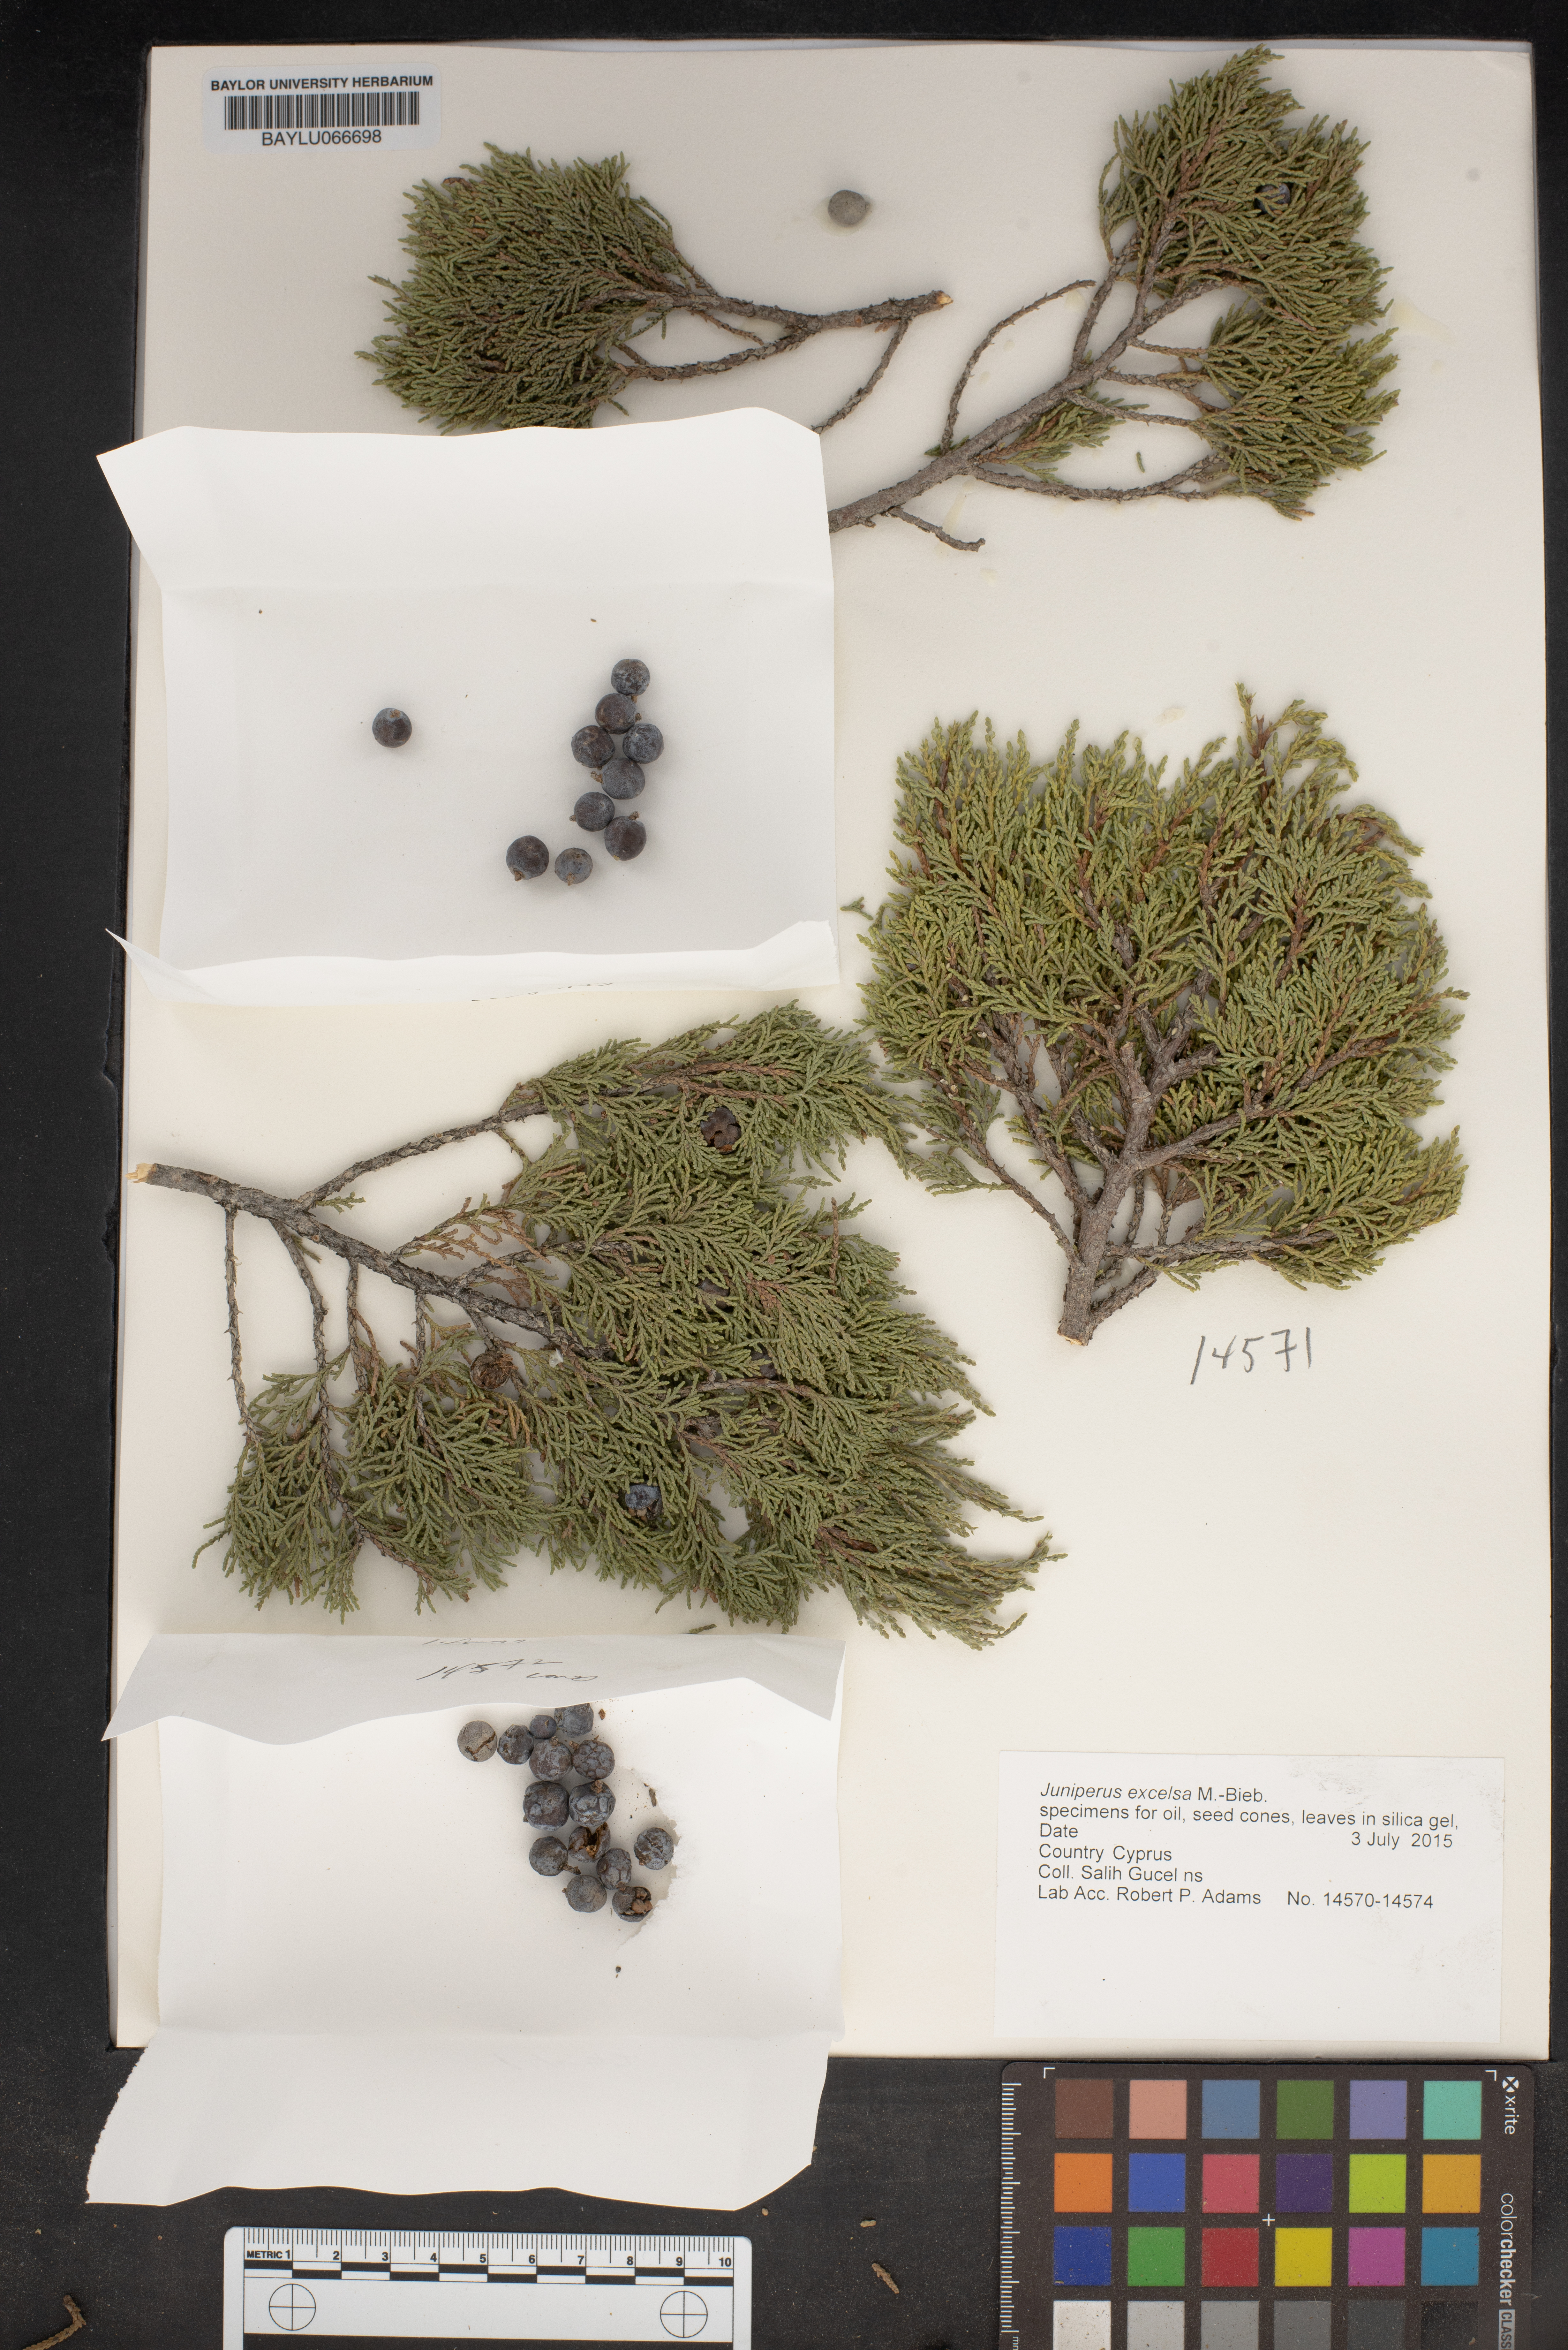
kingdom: Plantae
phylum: Tracheophyta
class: Pinopsida
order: Pinales
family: Cupressaceae
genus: Juniperus
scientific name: Juniperus excelsa
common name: Crimean juniper
